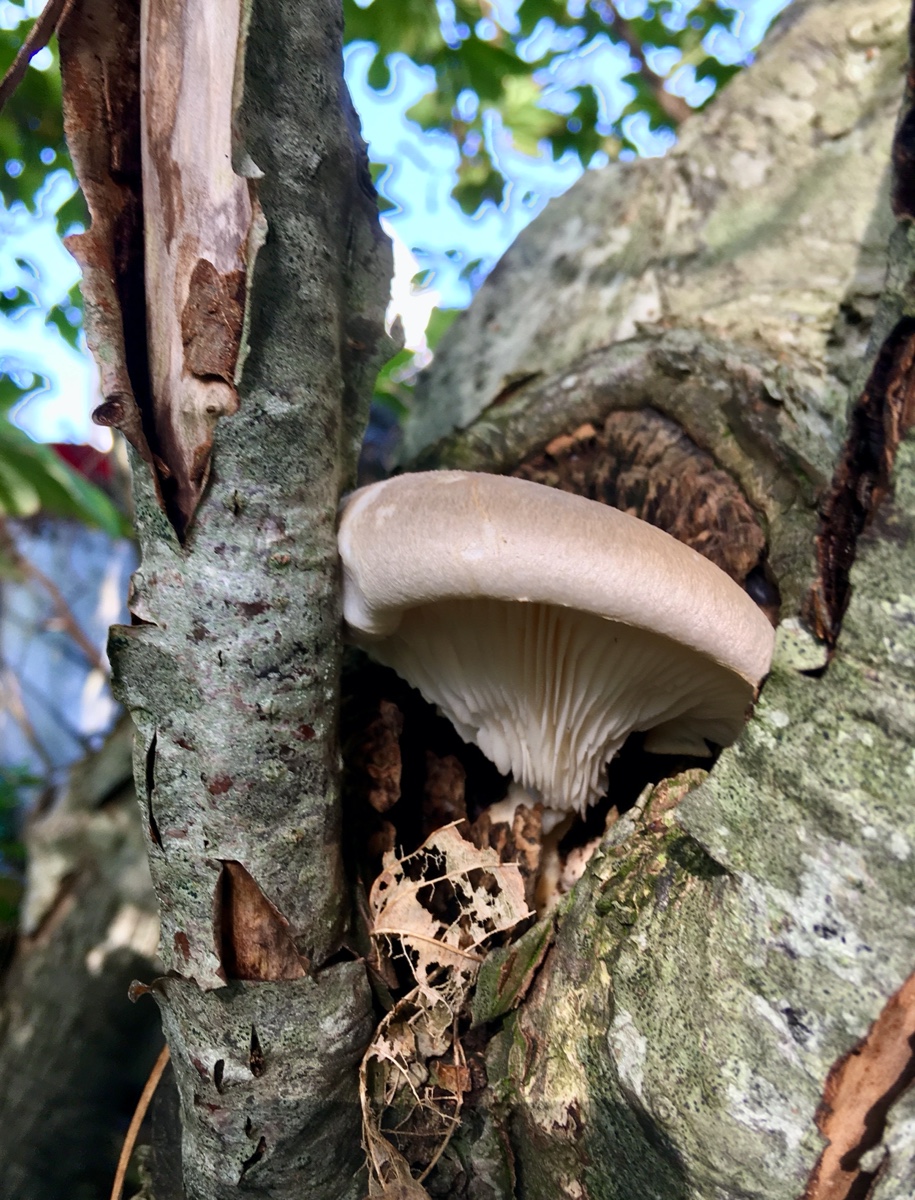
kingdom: Fungi
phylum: Basidiomycota
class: Agaricomycetes
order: Agaricales
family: Pleurotaceae
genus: Pleurotus
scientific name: Pleurotus dryinus
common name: korkagtig østershat
